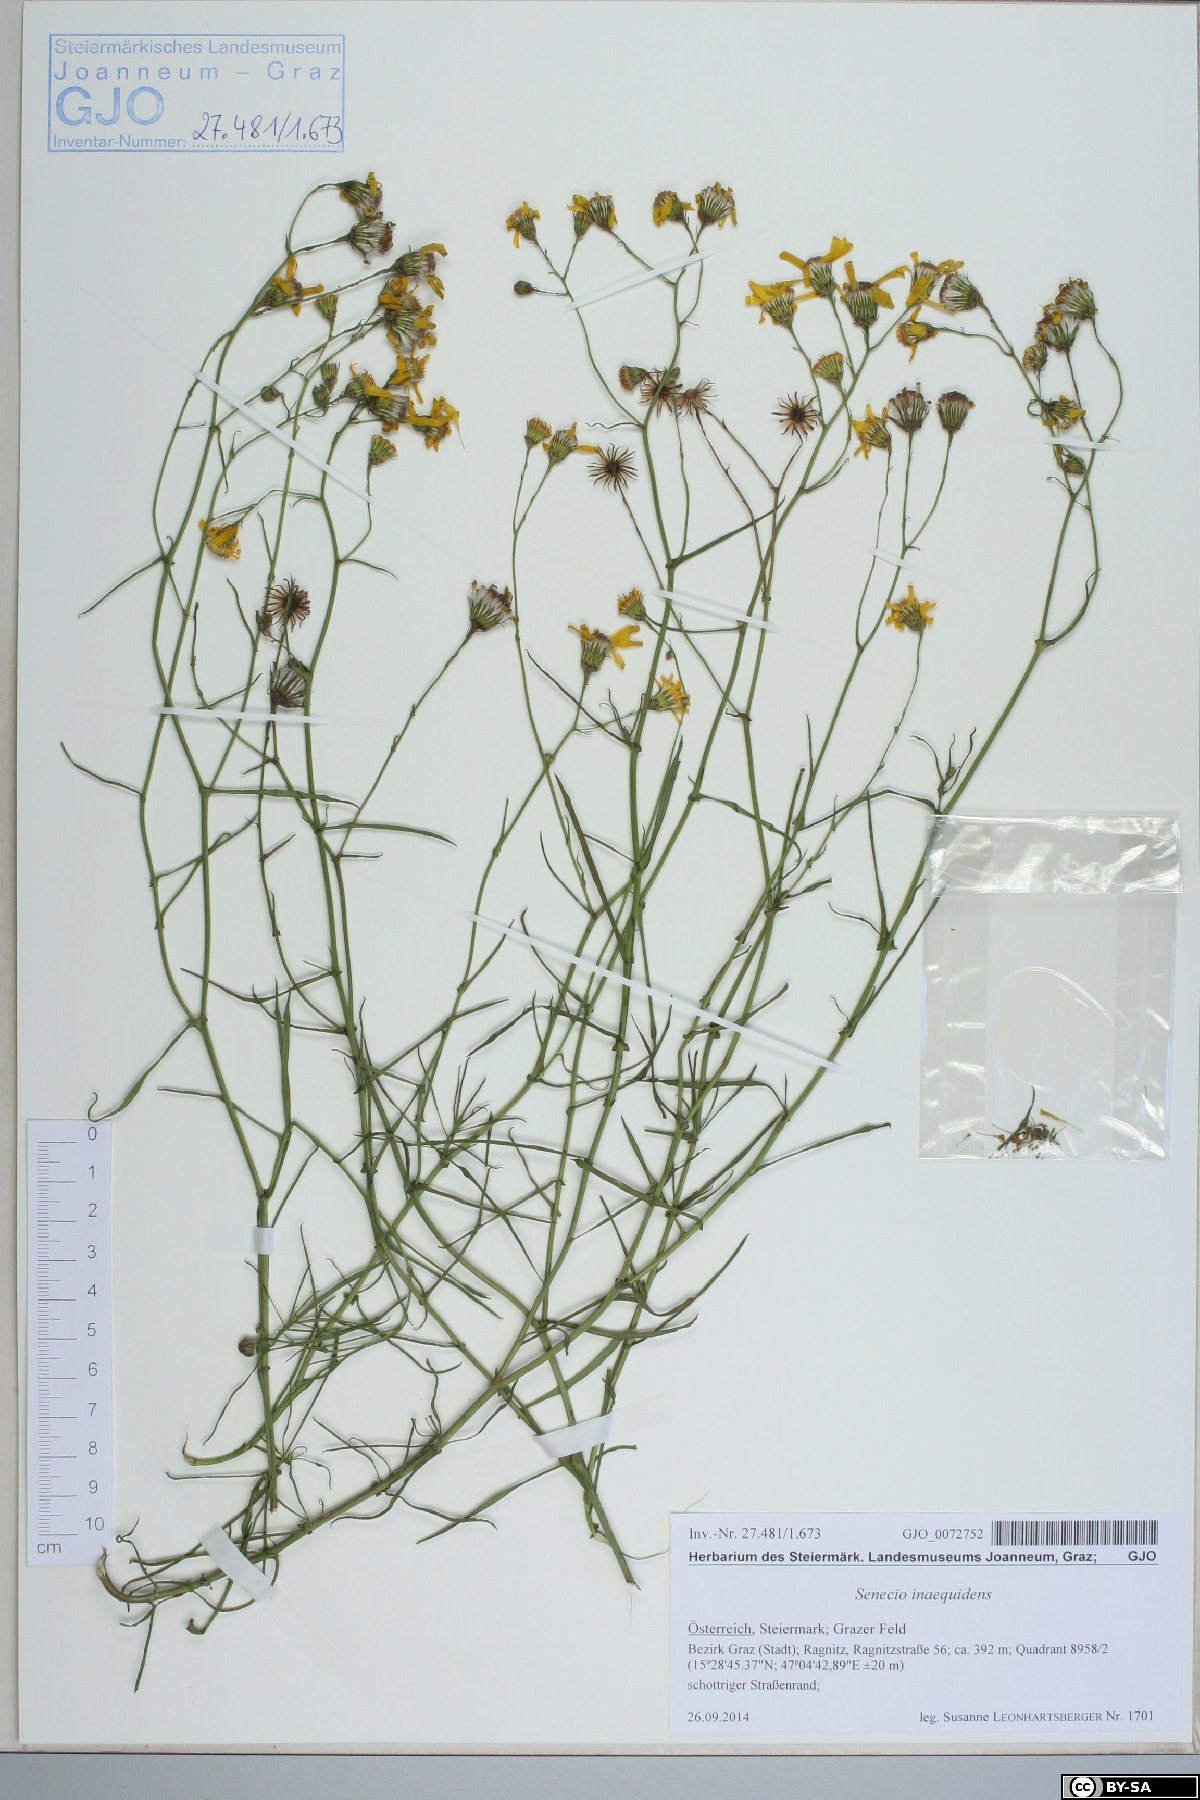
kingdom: Plantae
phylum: Tracheophyta
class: Magnoliopsida
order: Asterales
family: Asteraceae
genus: Senecio
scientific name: Senecio inaequidens
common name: Narrow-leaved ragwort
